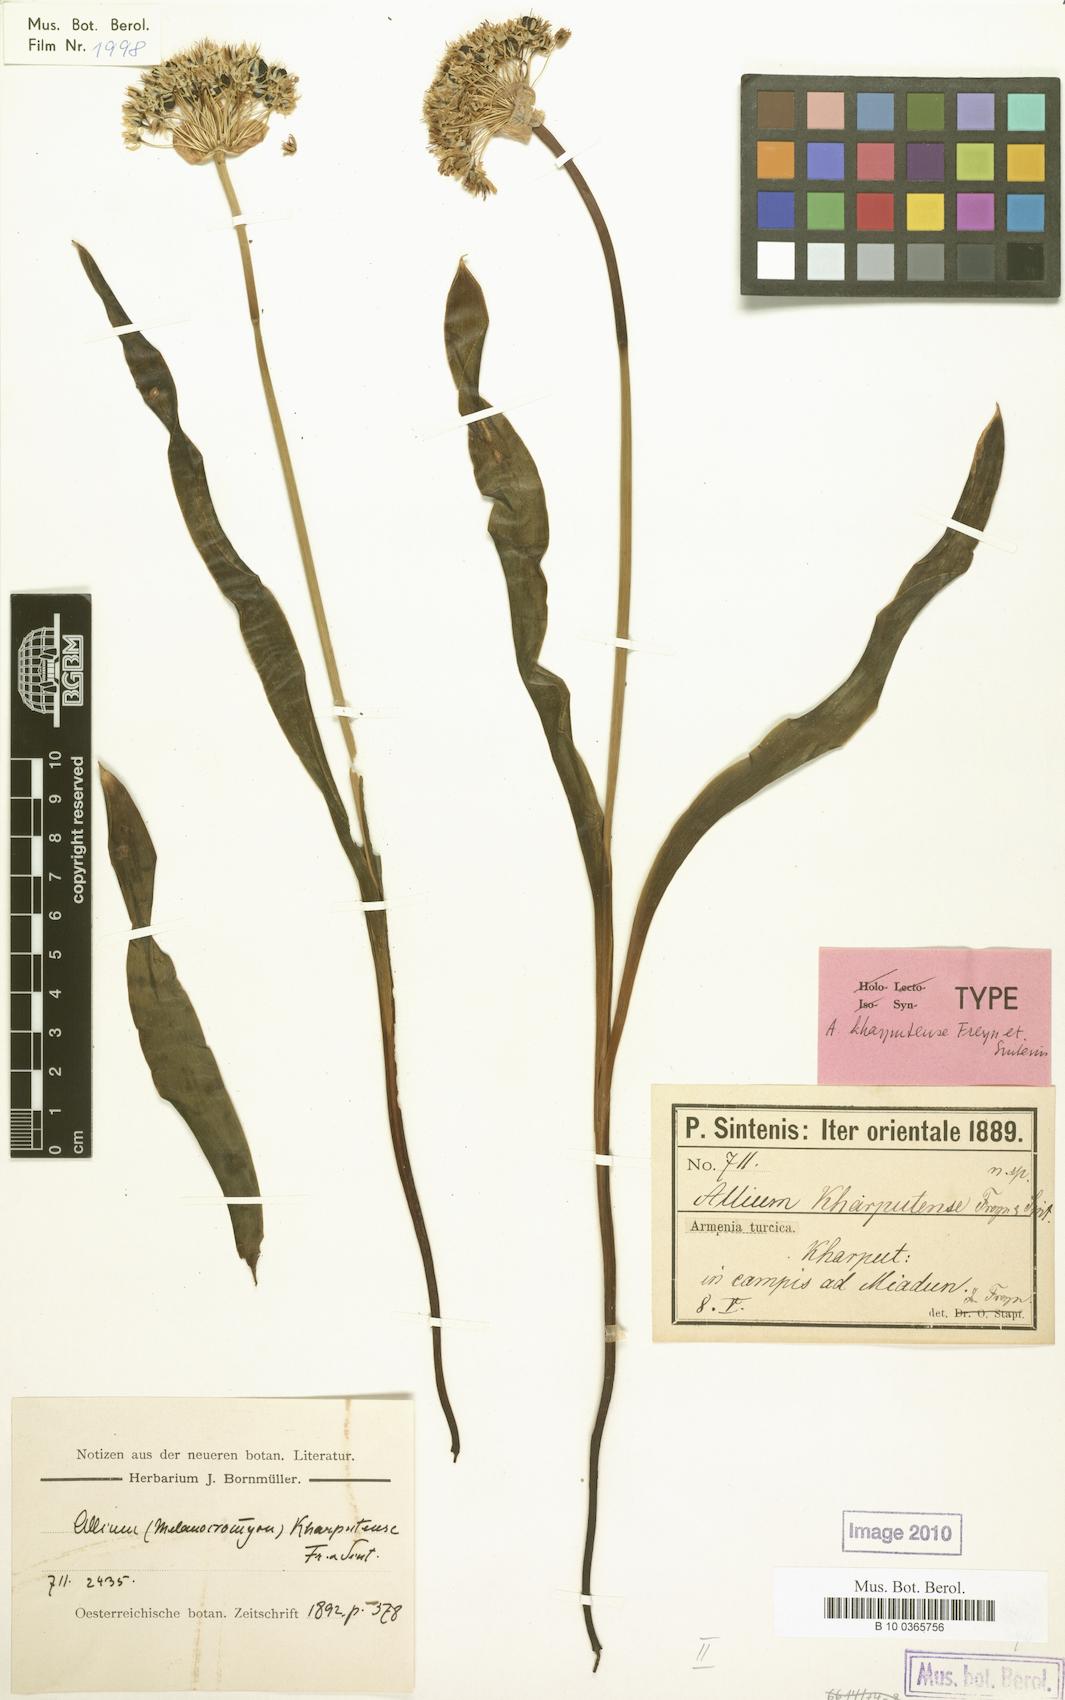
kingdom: Plantae
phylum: Tracheophyta
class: Liliopsida
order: Asparagales
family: Amaryllidaceae
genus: Allium
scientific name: Allium kharputense
